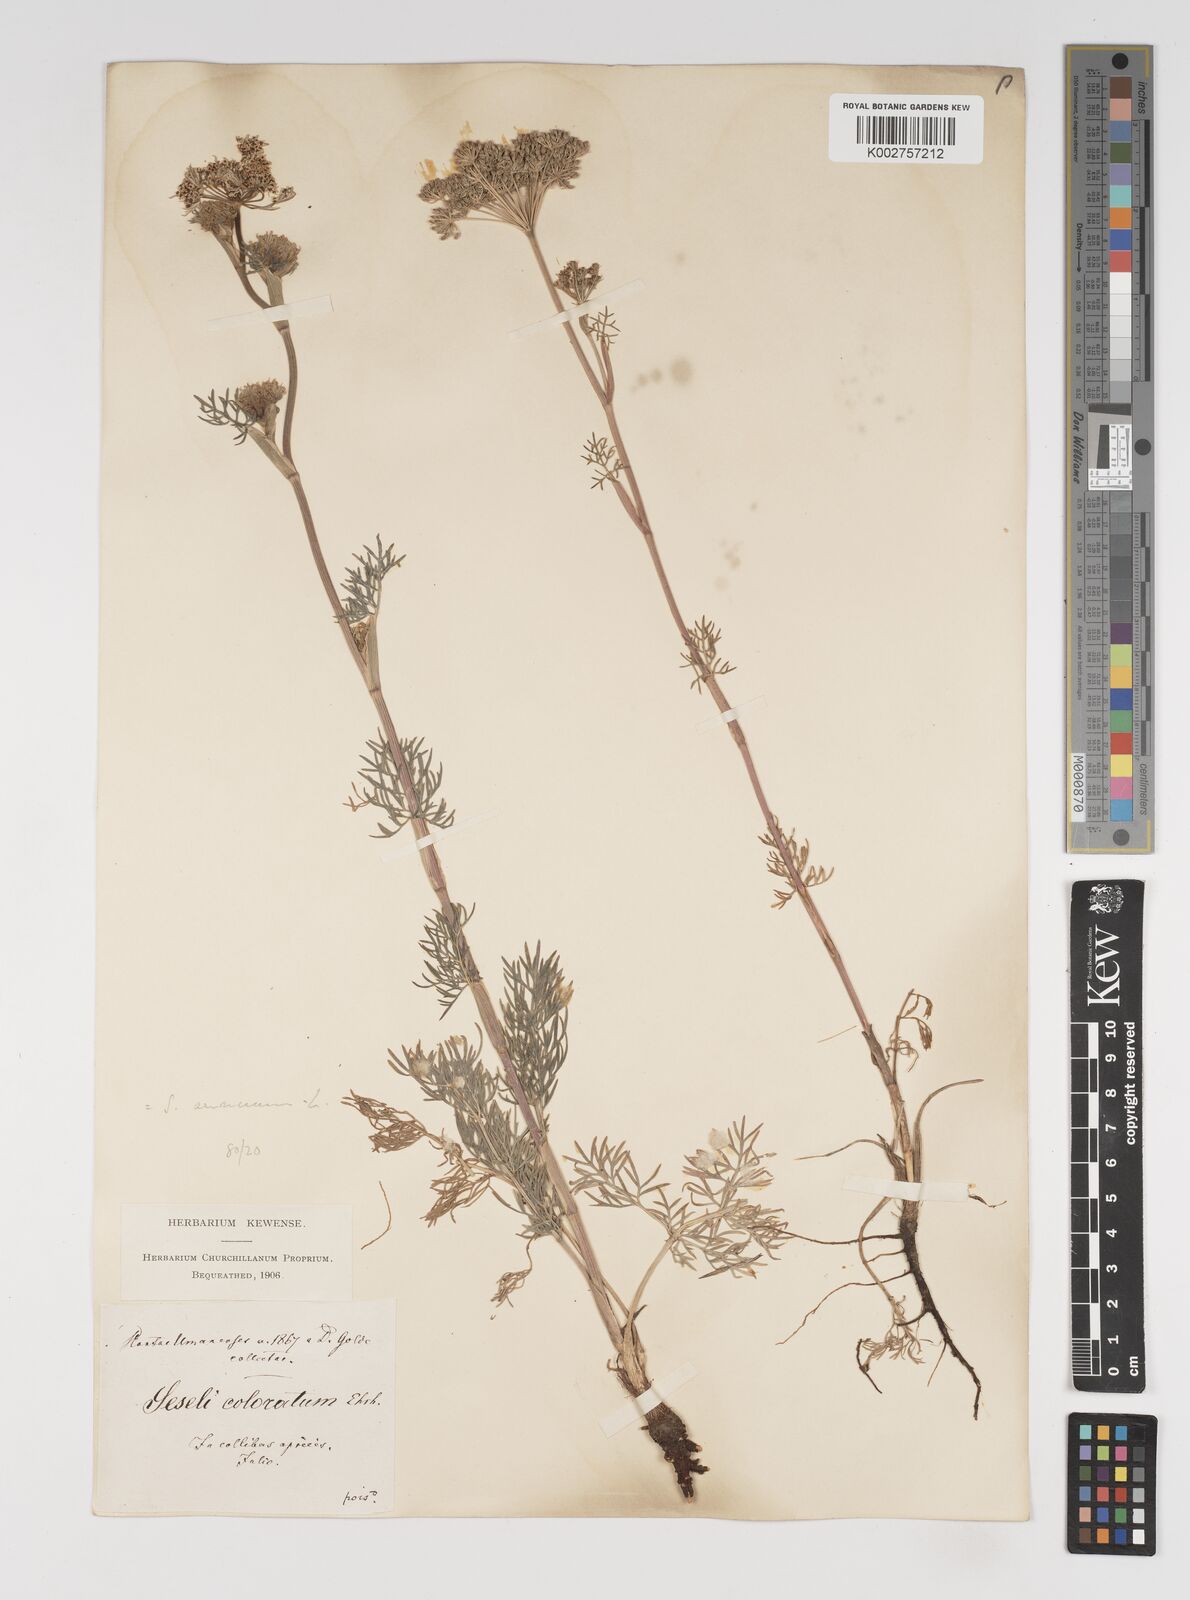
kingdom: Plantae
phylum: Tracheophyta
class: Magnoliopsida
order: Apiales
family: Apiaceae
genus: Seseli
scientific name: Seseli annuum
